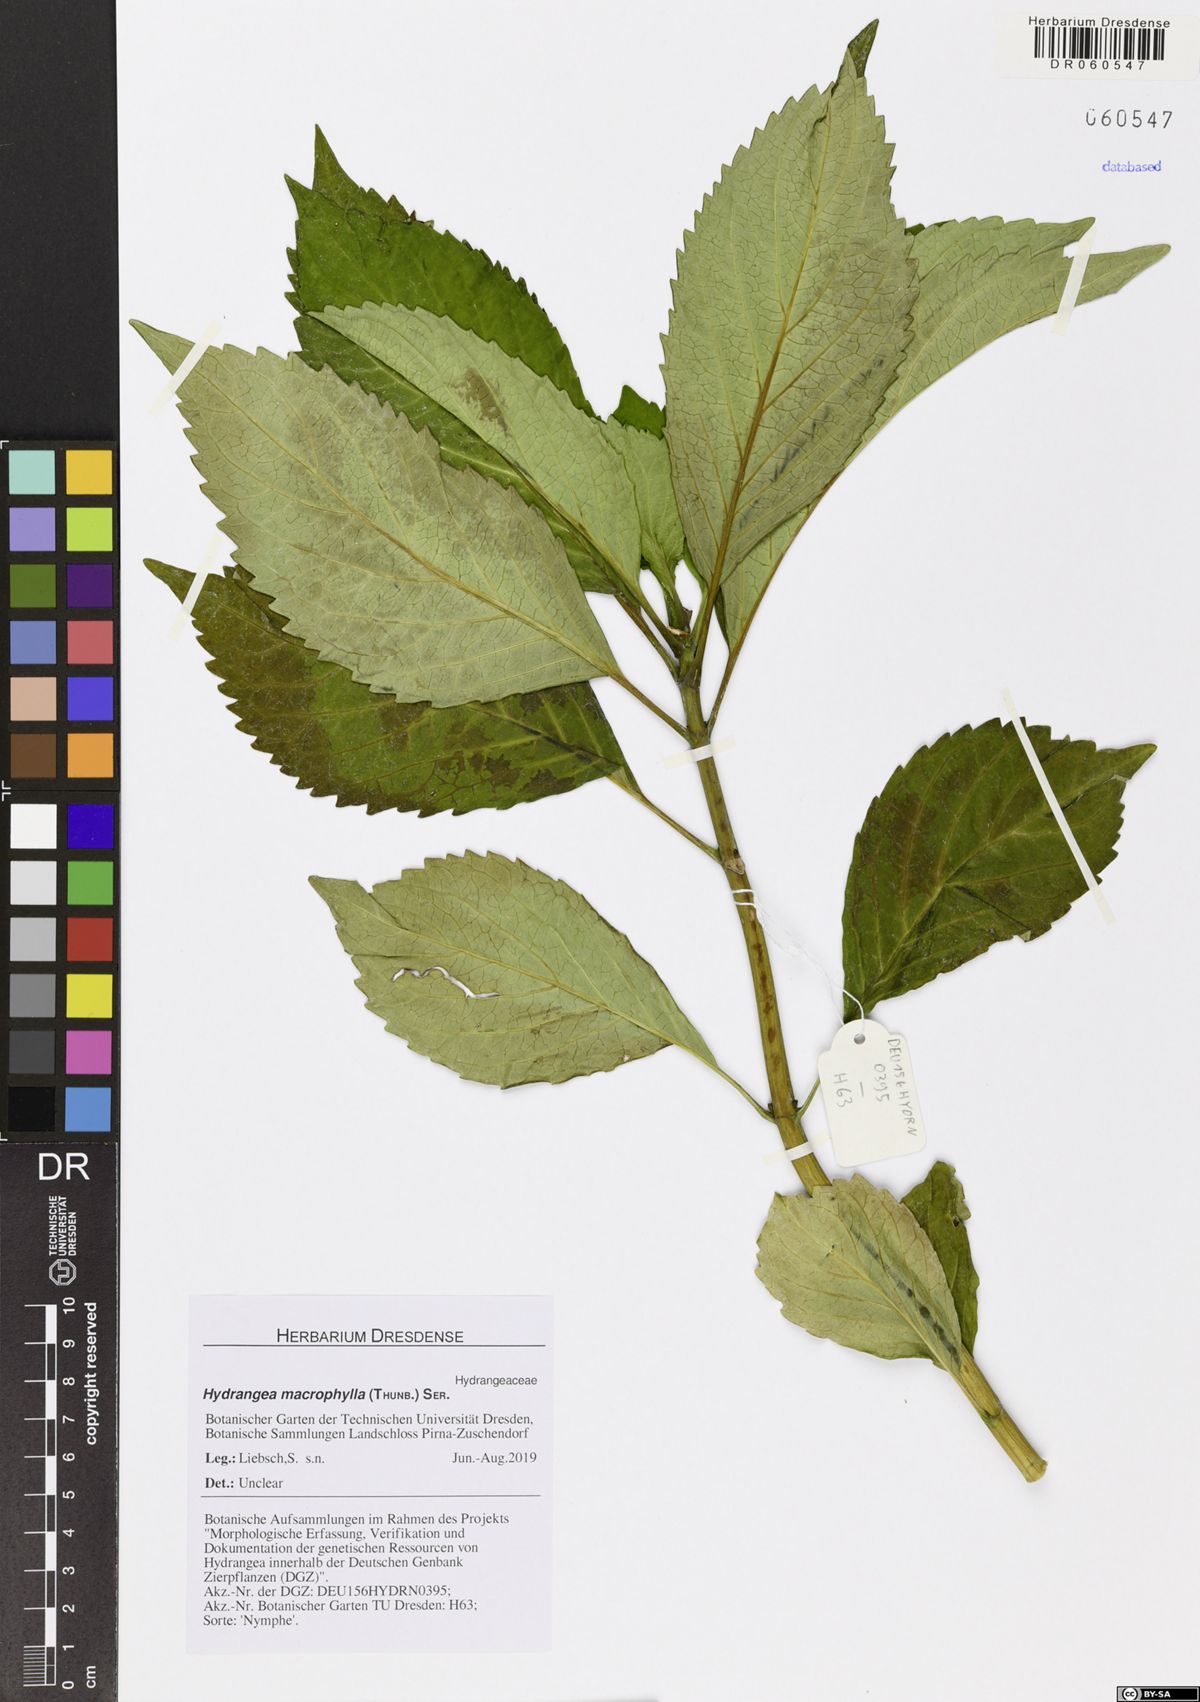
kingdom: Plantae
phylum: Tracheophyta
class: Magnoliopsida
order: Cornales
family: Hydrangeaceae
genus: Hydrangea
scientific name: Hydrangea macrophylla
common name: Hydrangea
